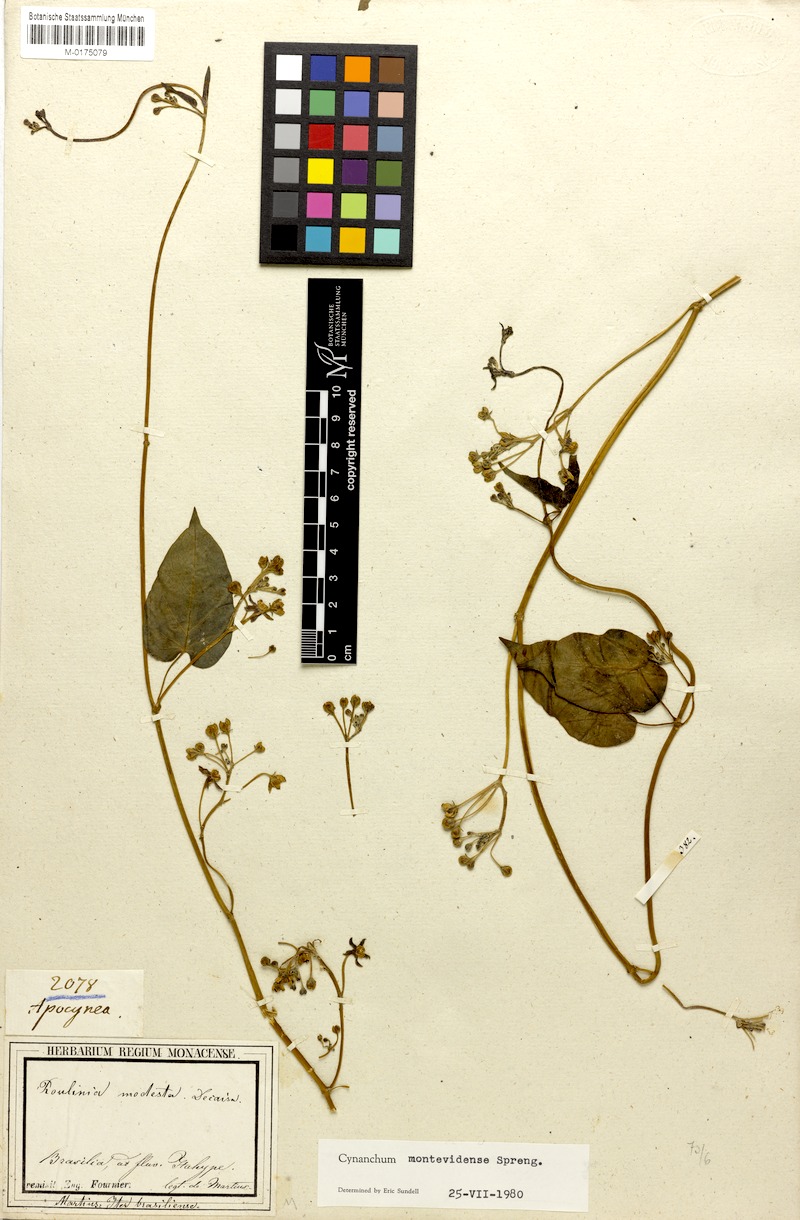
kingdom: Plantae
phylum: Tracheophyta
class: Magnoliopsida
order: Gentianales
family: Apocynaceae
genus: Cynanchum
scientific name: Cynanchum montevidense
